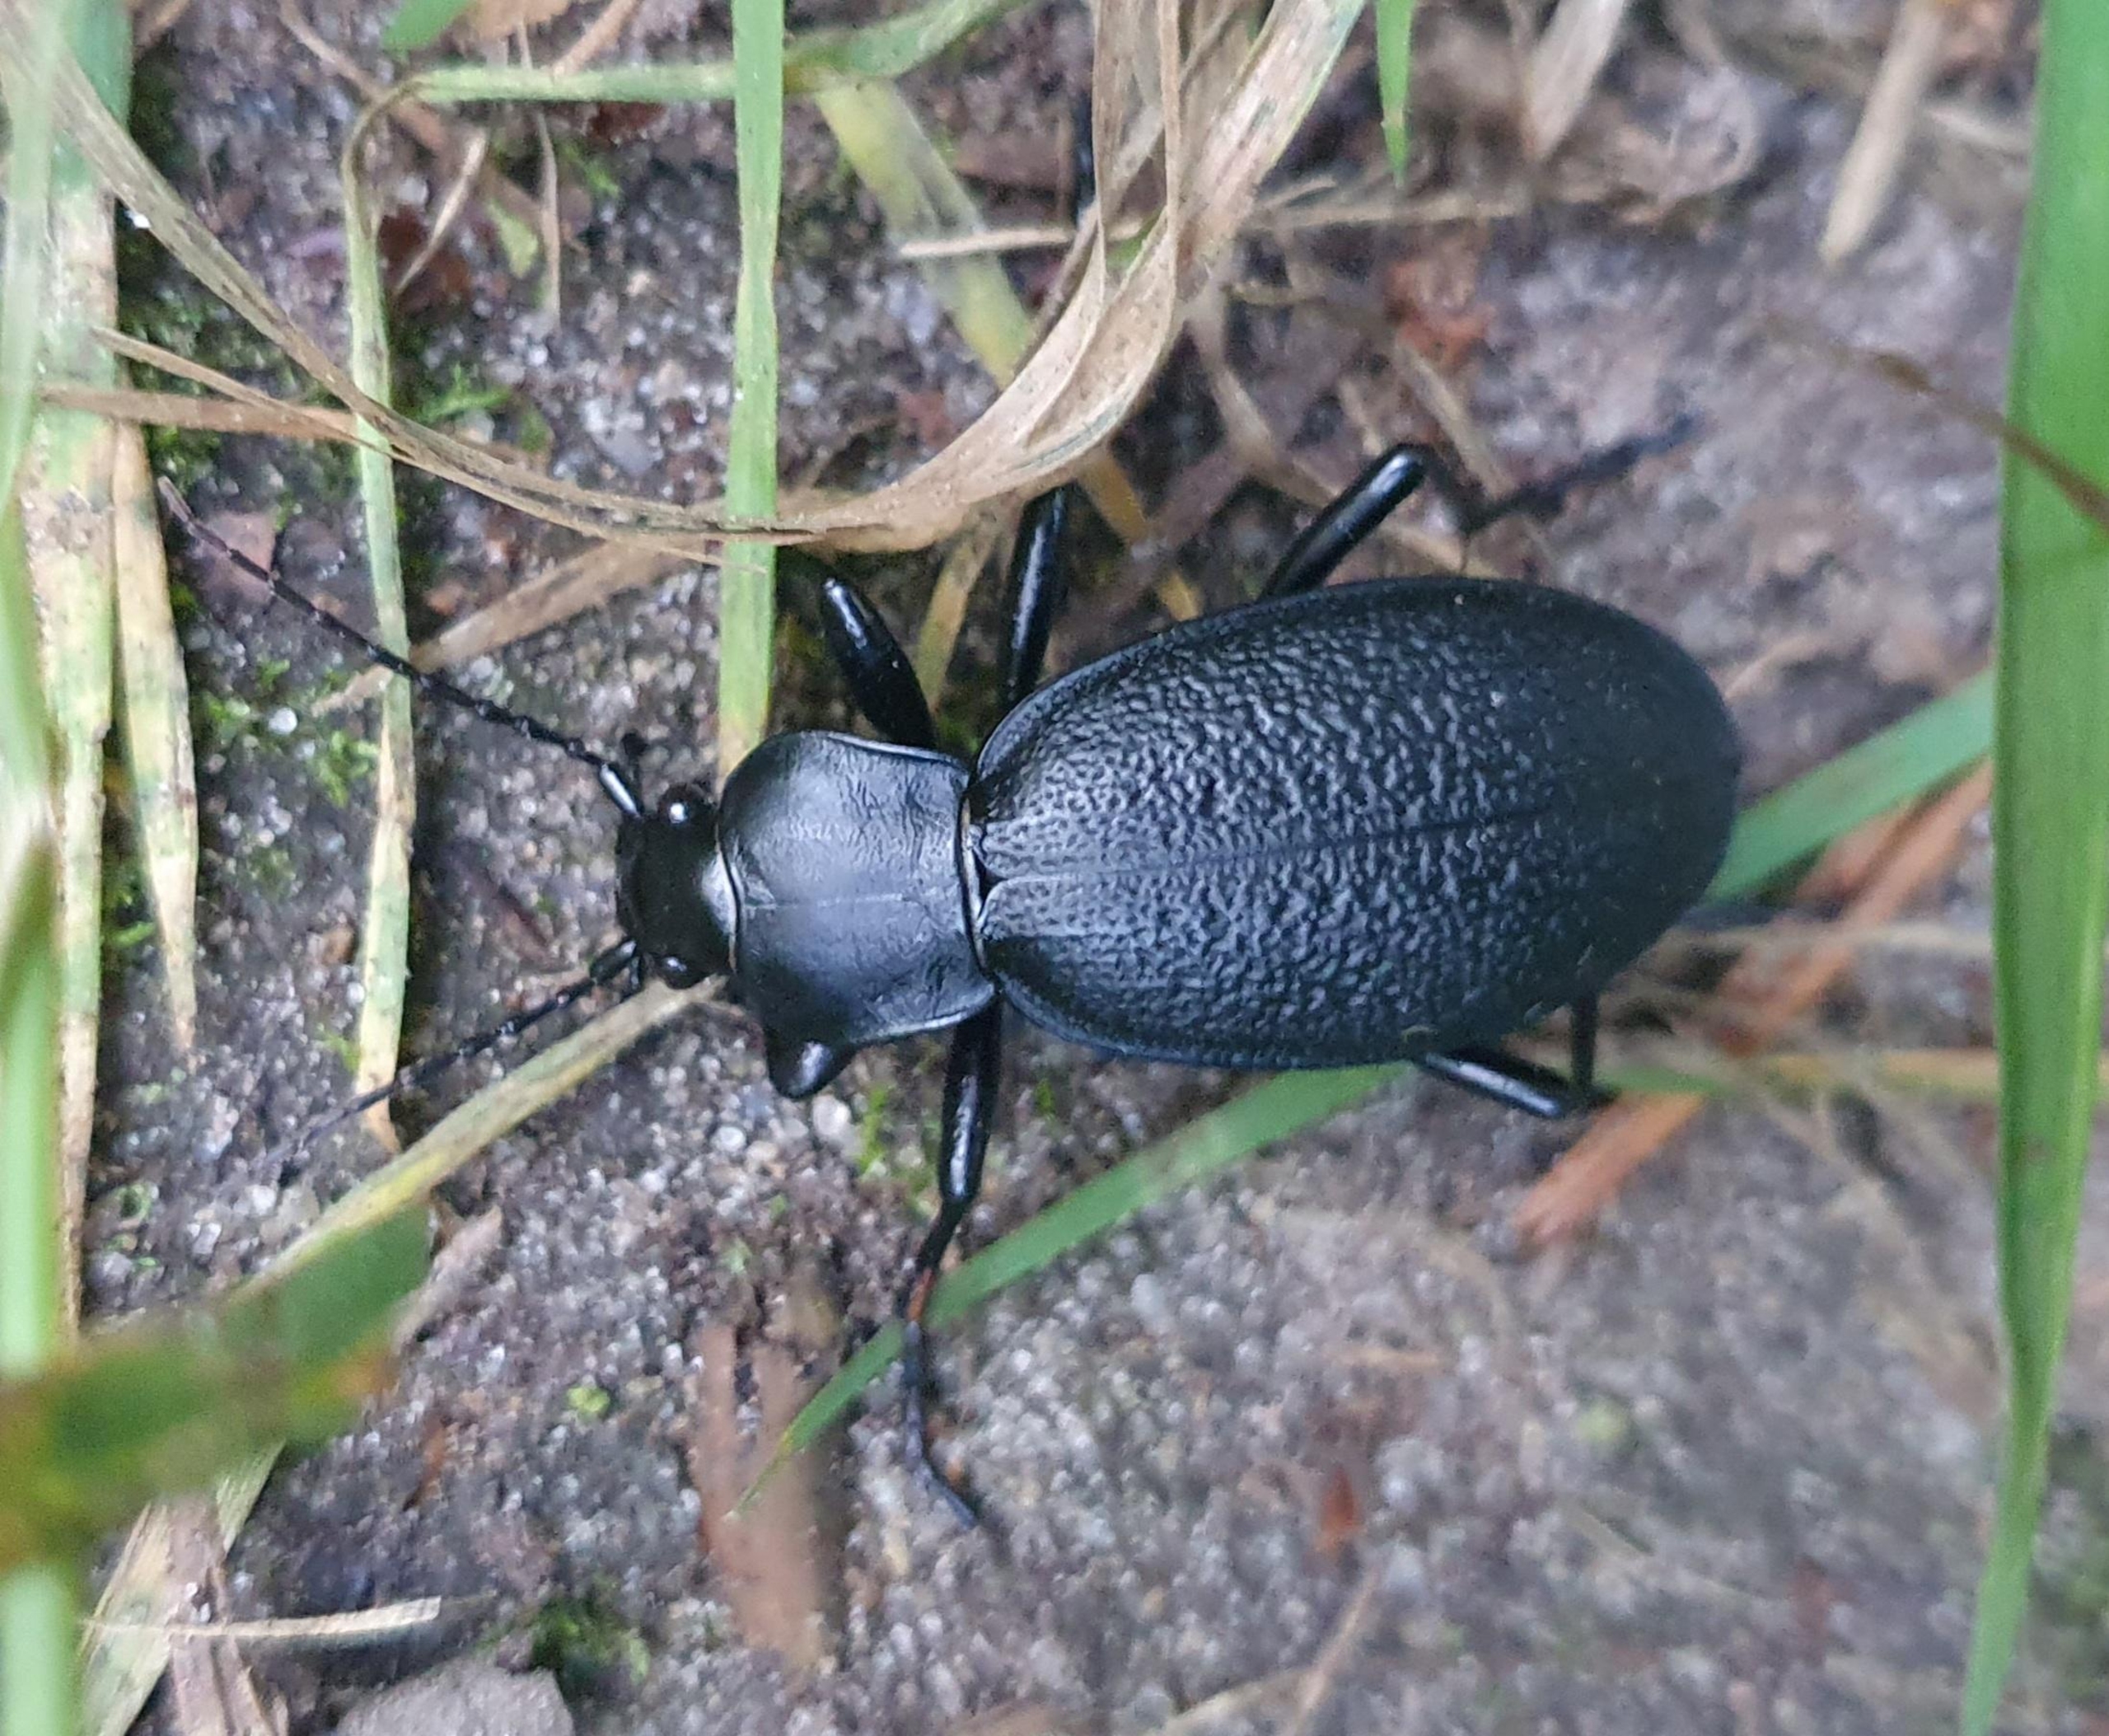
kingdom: Animalia
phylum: Arthropoda
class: Insecta
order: Coleoptera
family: Carabidae
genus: Carabus
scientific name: Carabus coriaceus
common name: Læderløber
